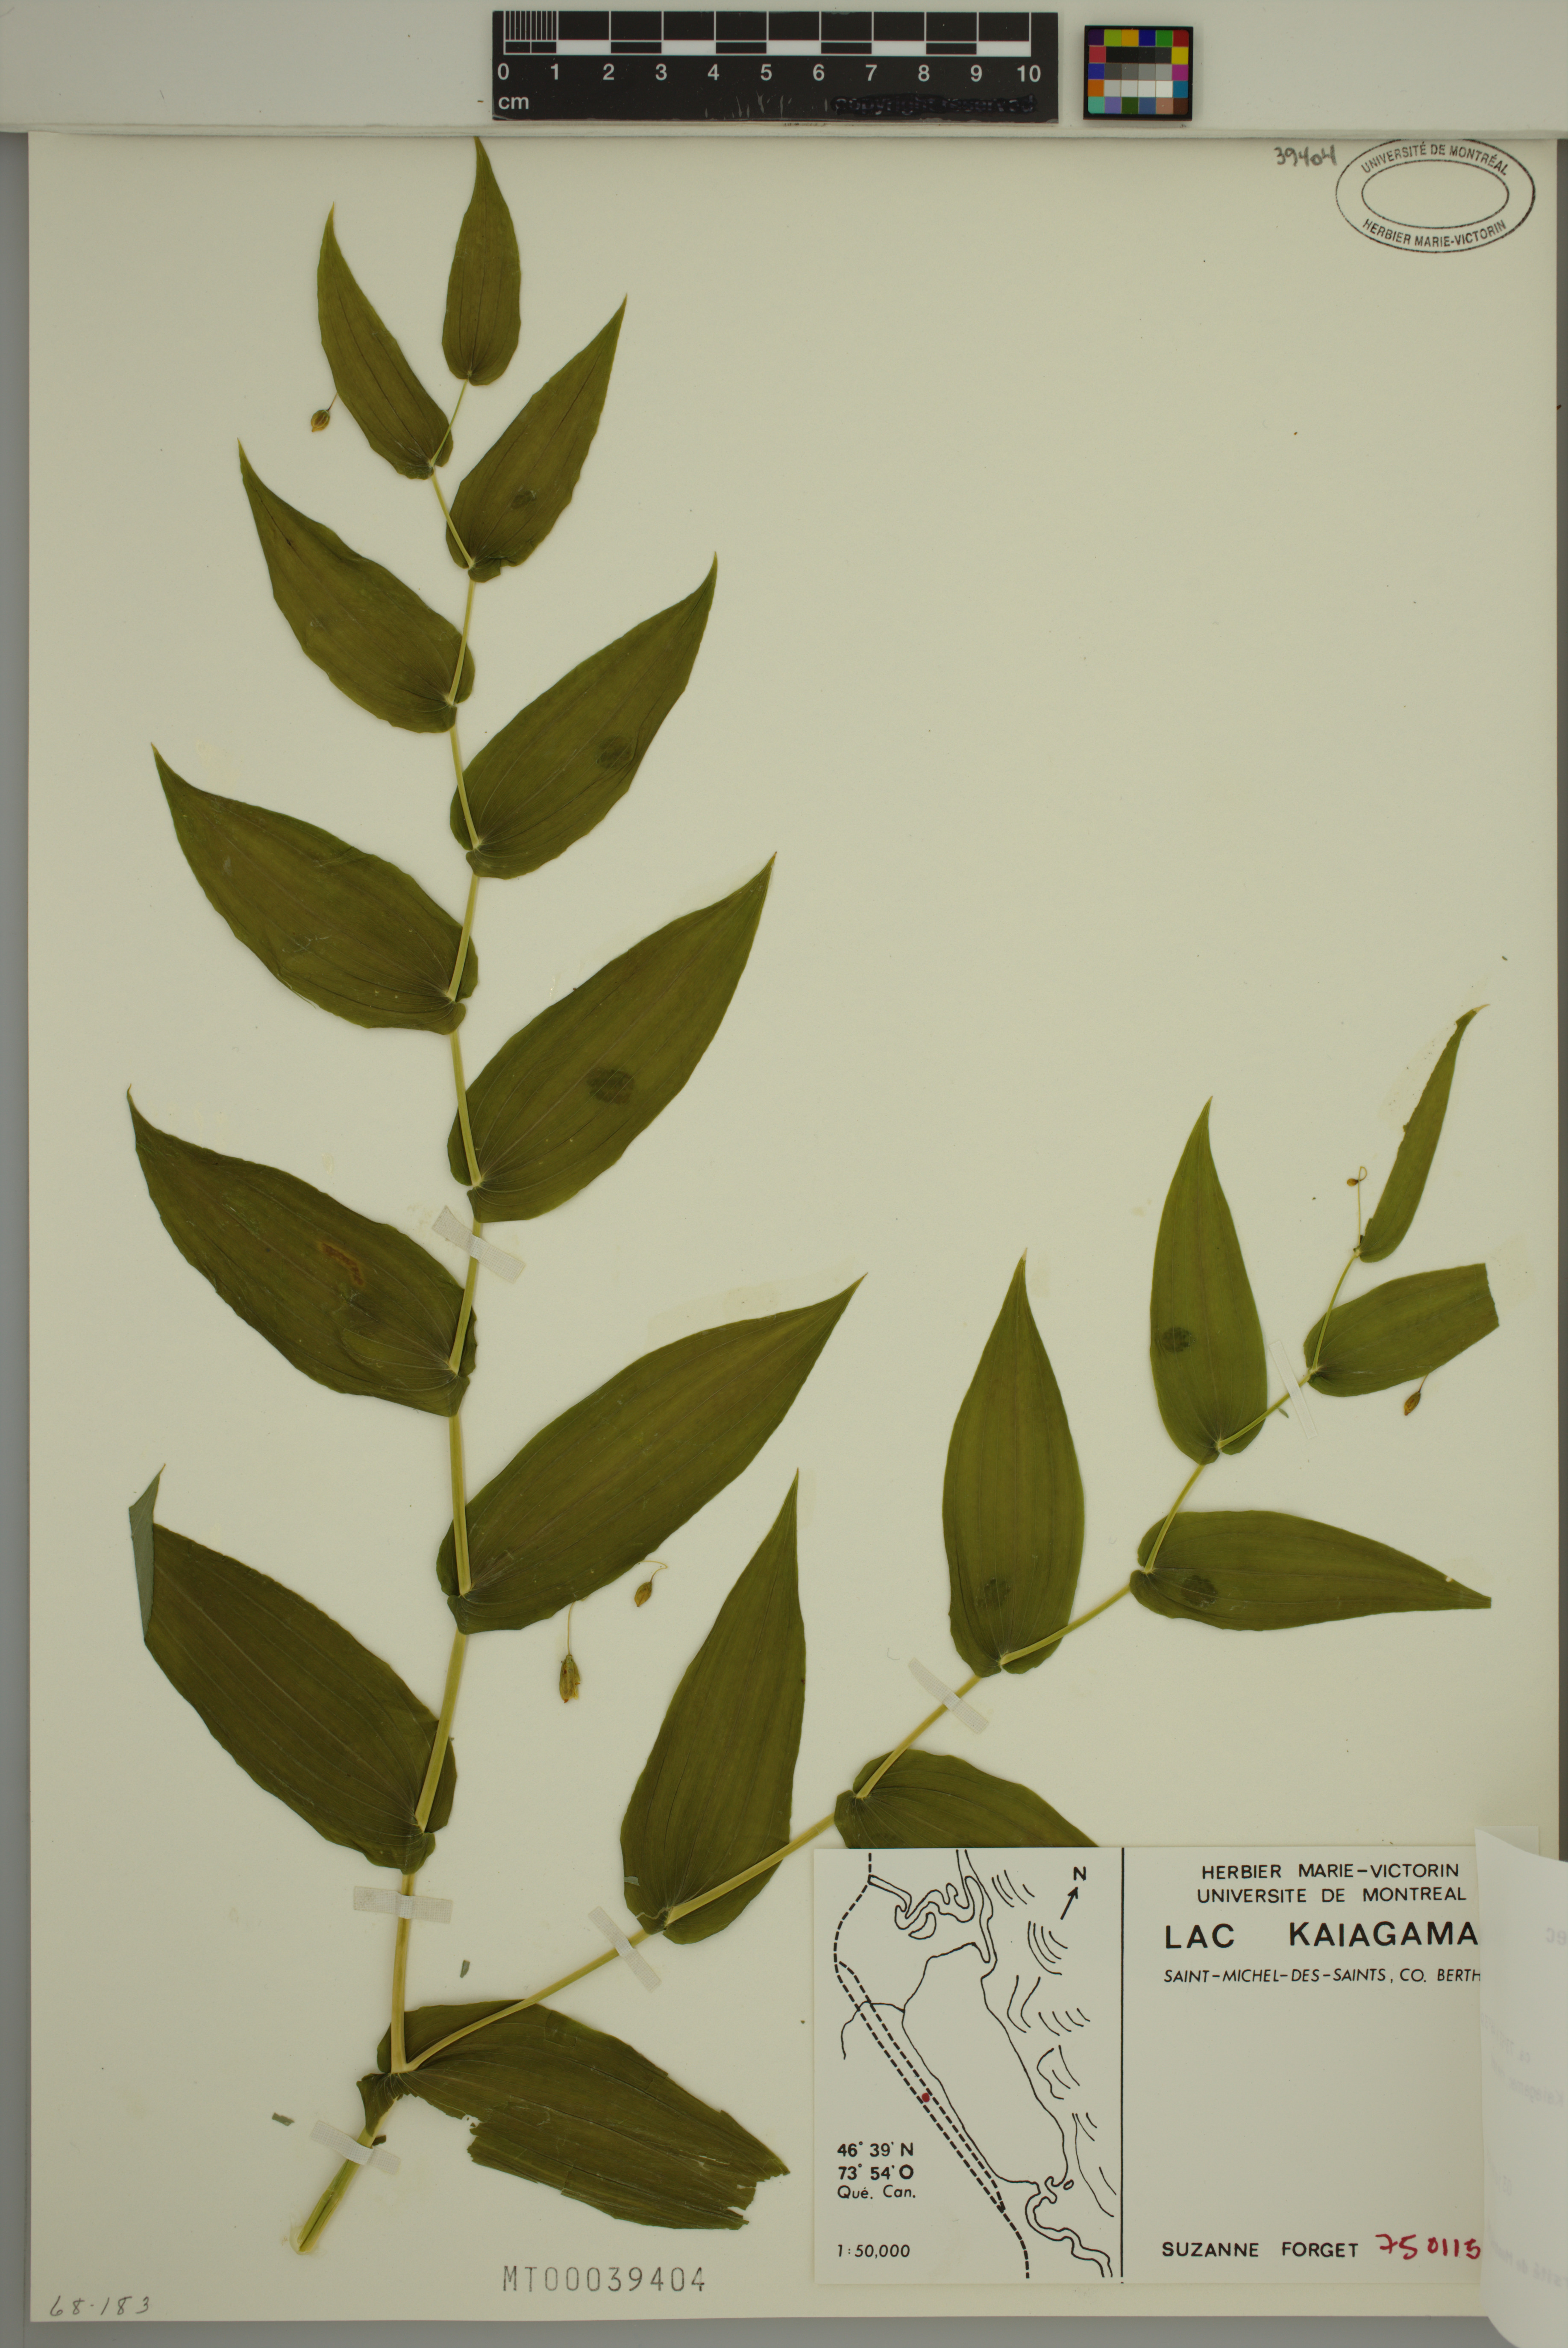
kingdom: Plantae
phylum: Tracheophyta
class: Liliopsida
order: Liliales
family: Liliaceae
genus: Streptopus
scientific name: Streptopus amplexifolius
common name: Clasp twisted stalk
